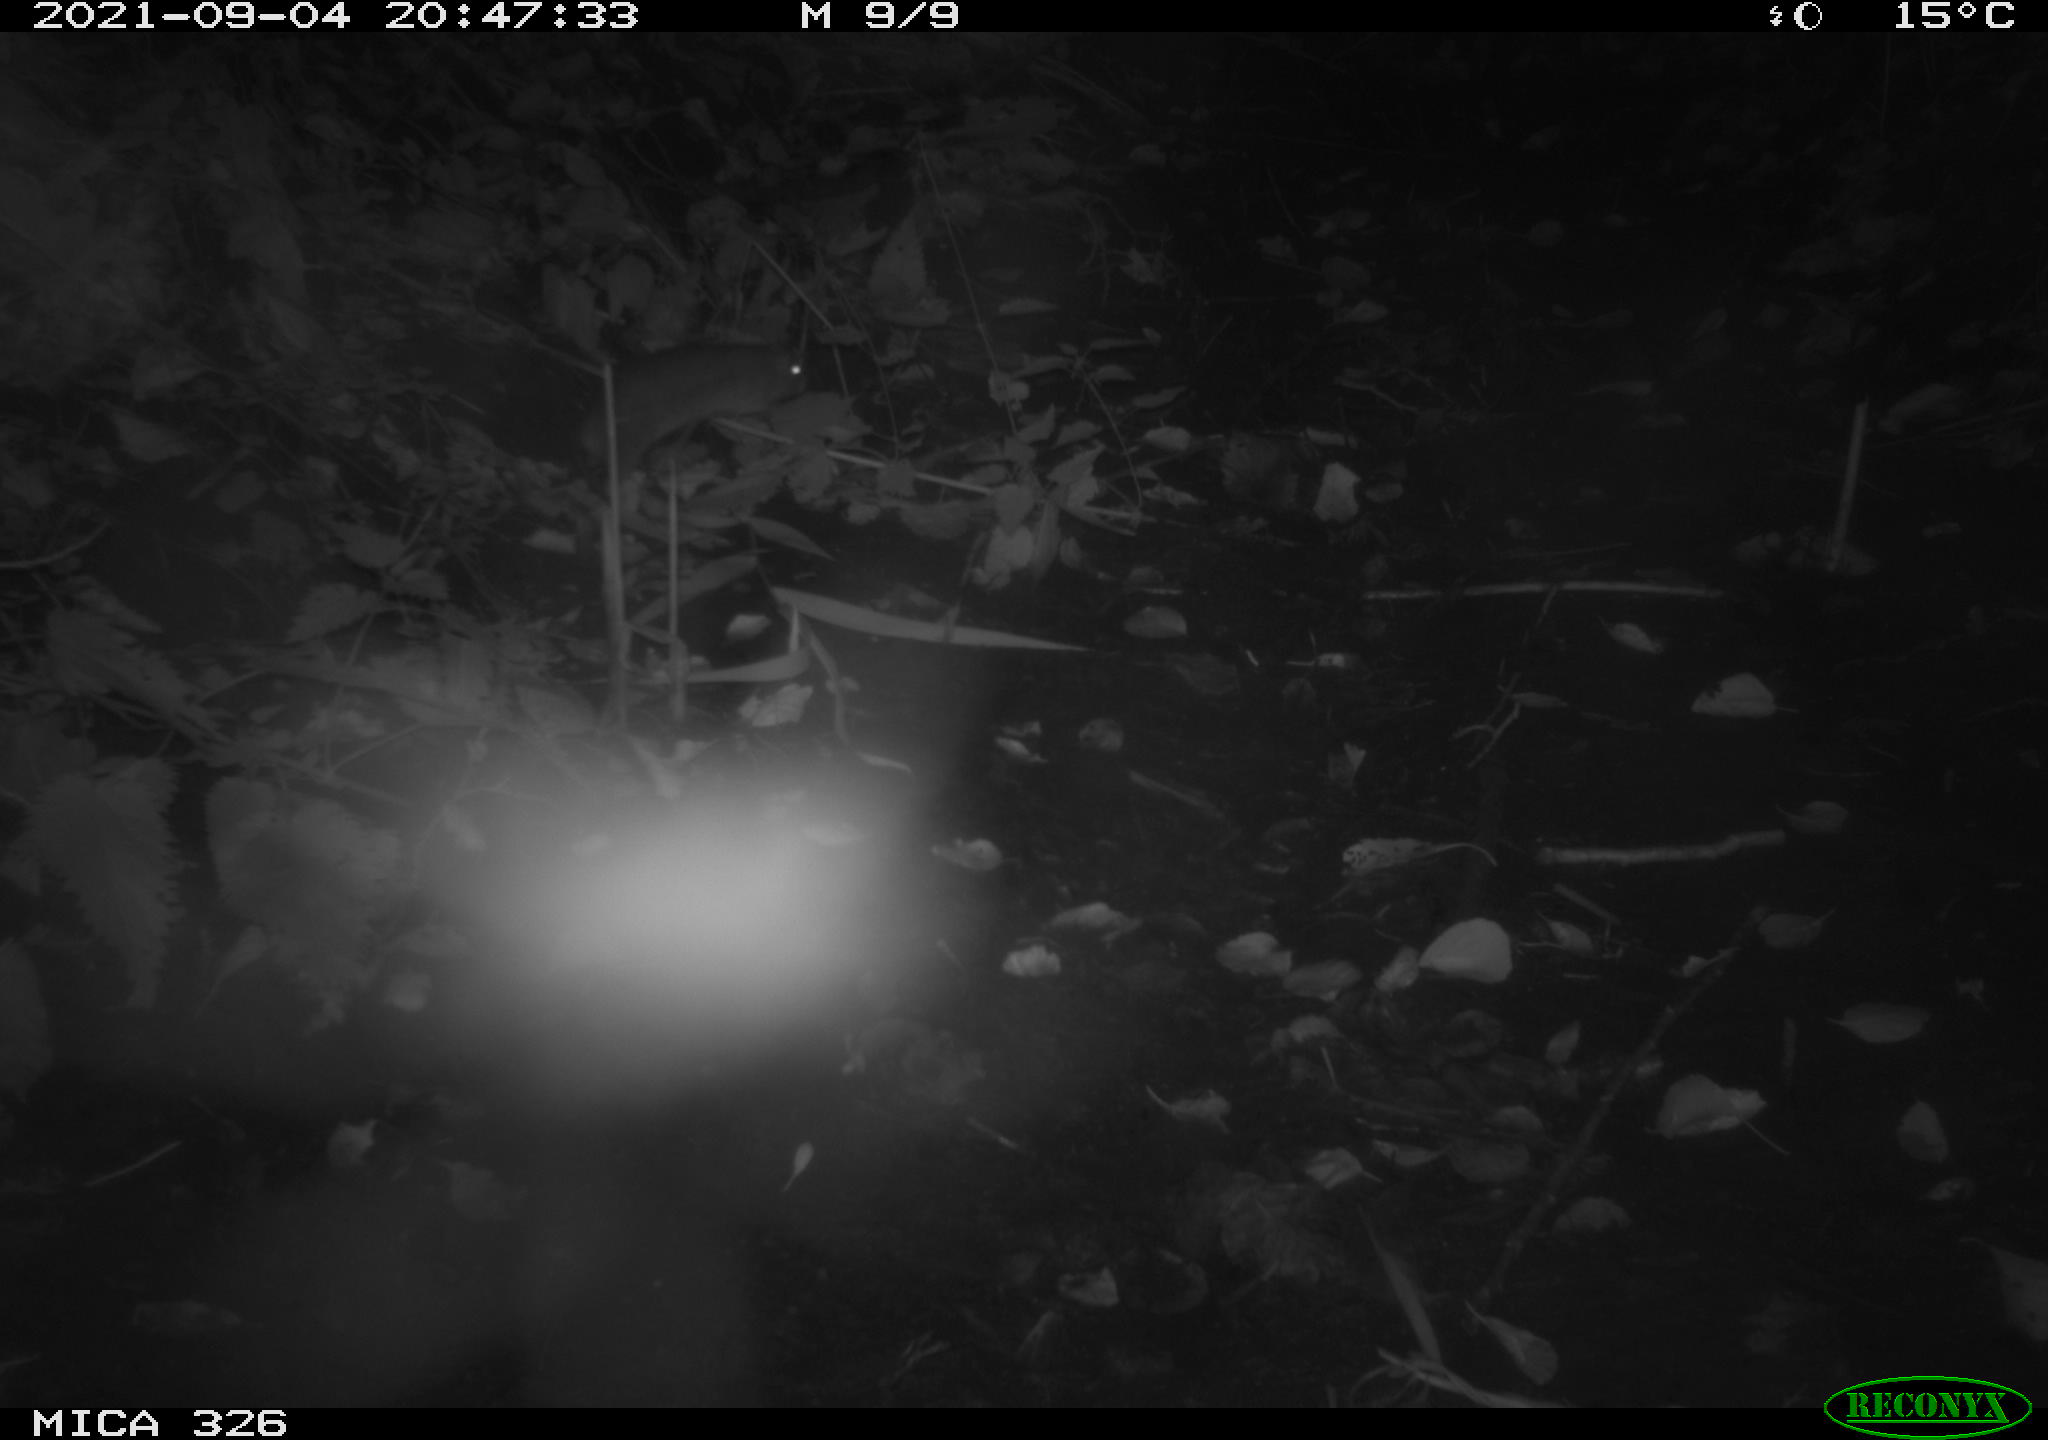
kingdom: Animalia
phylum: Chordata
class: Mammalia
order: Rodentia
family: Muridae
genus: Rattus
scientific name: Rattus norvegicus
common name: Brown rat
